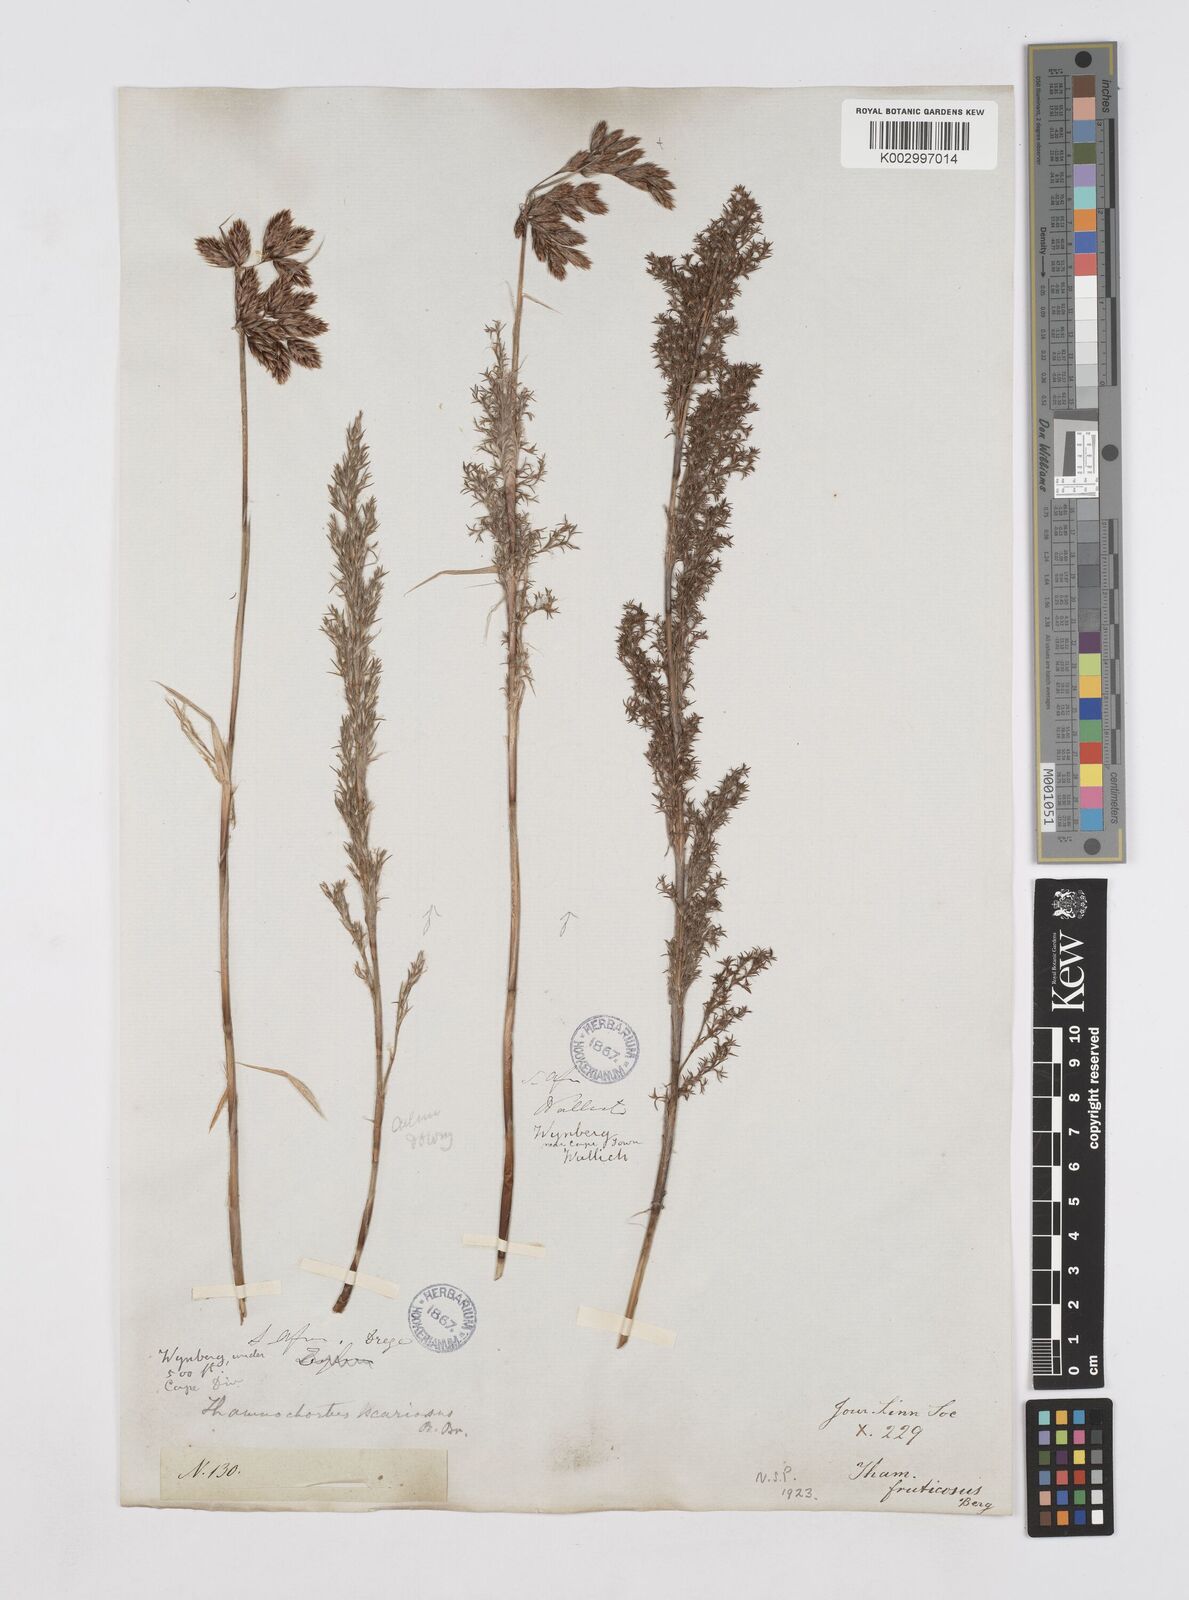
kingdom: Plantae
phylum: Tracheophyta
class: Liliopsida
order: Poales
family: Restionaceae
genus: Thamnochortus
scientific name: Thamnochortus fruticosus
